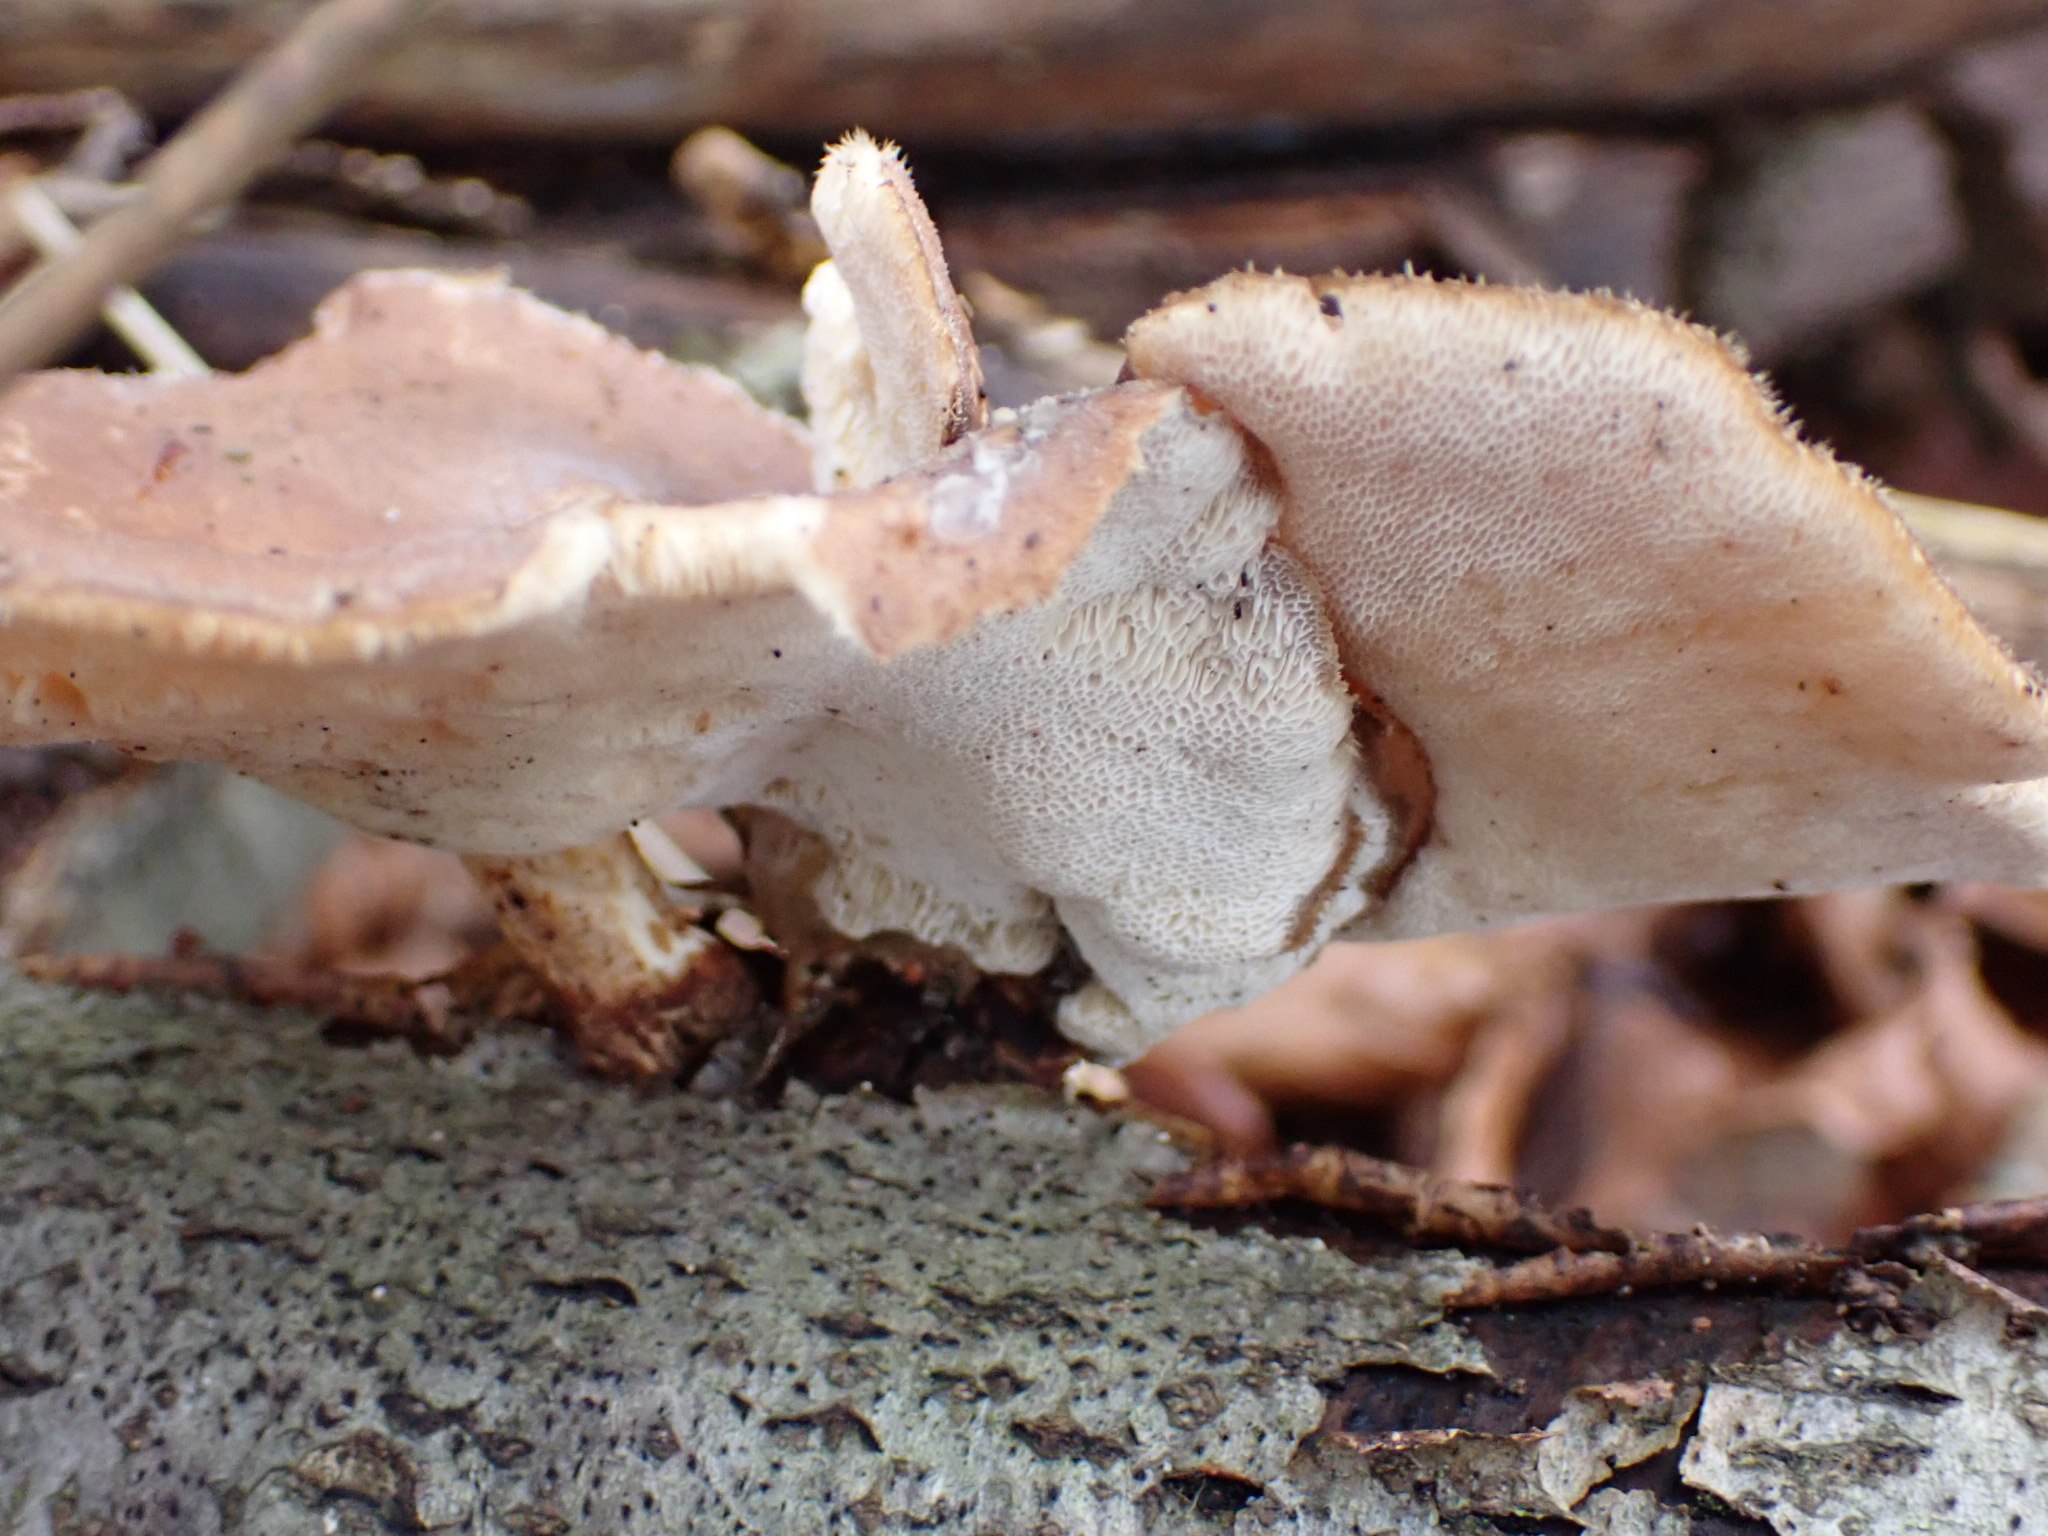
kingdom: Fungi
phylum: Basidiomycota
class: Agaricomycetes
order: Polyporales
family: Polyporaceae
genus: Lentinus
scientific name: Lentinus brumalis
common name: vinter-stilkporesvamp
